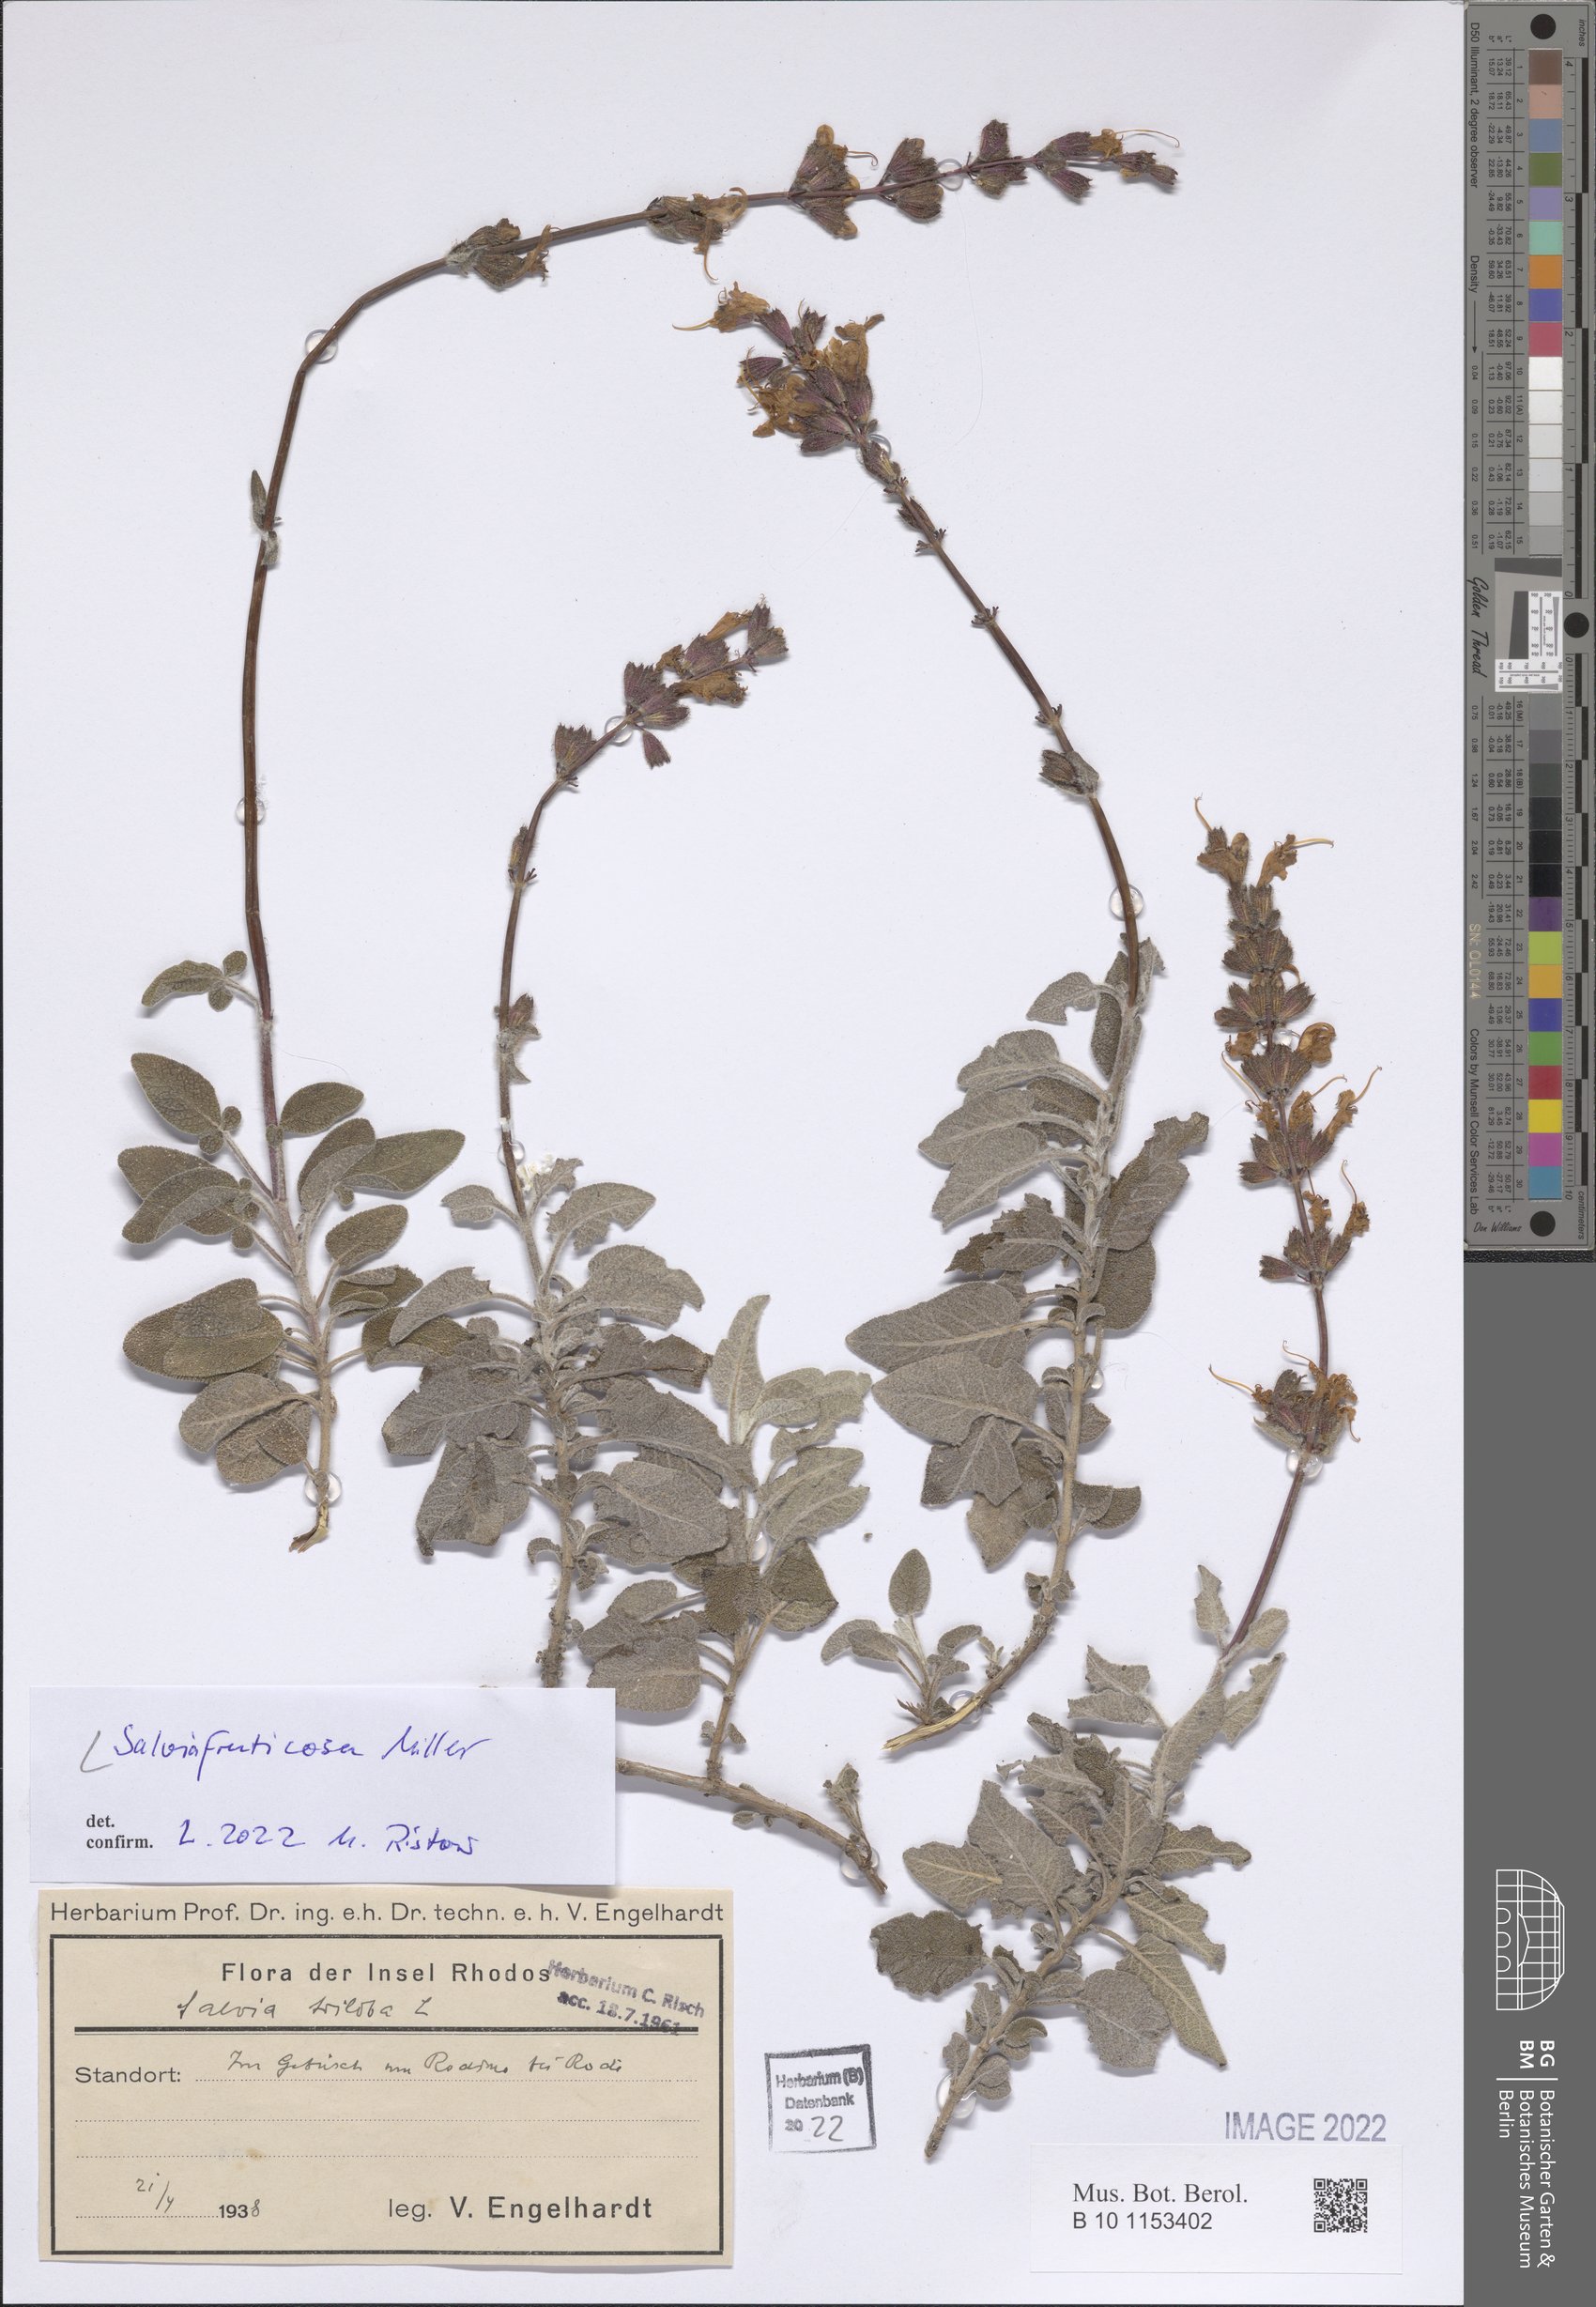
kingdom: Plantae
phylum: Tracheophyta
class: Magnoliopsida
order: Lamiales
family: Lamiaceae
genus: Salvia
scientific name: Salvia fruticosa
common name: Greek sage
